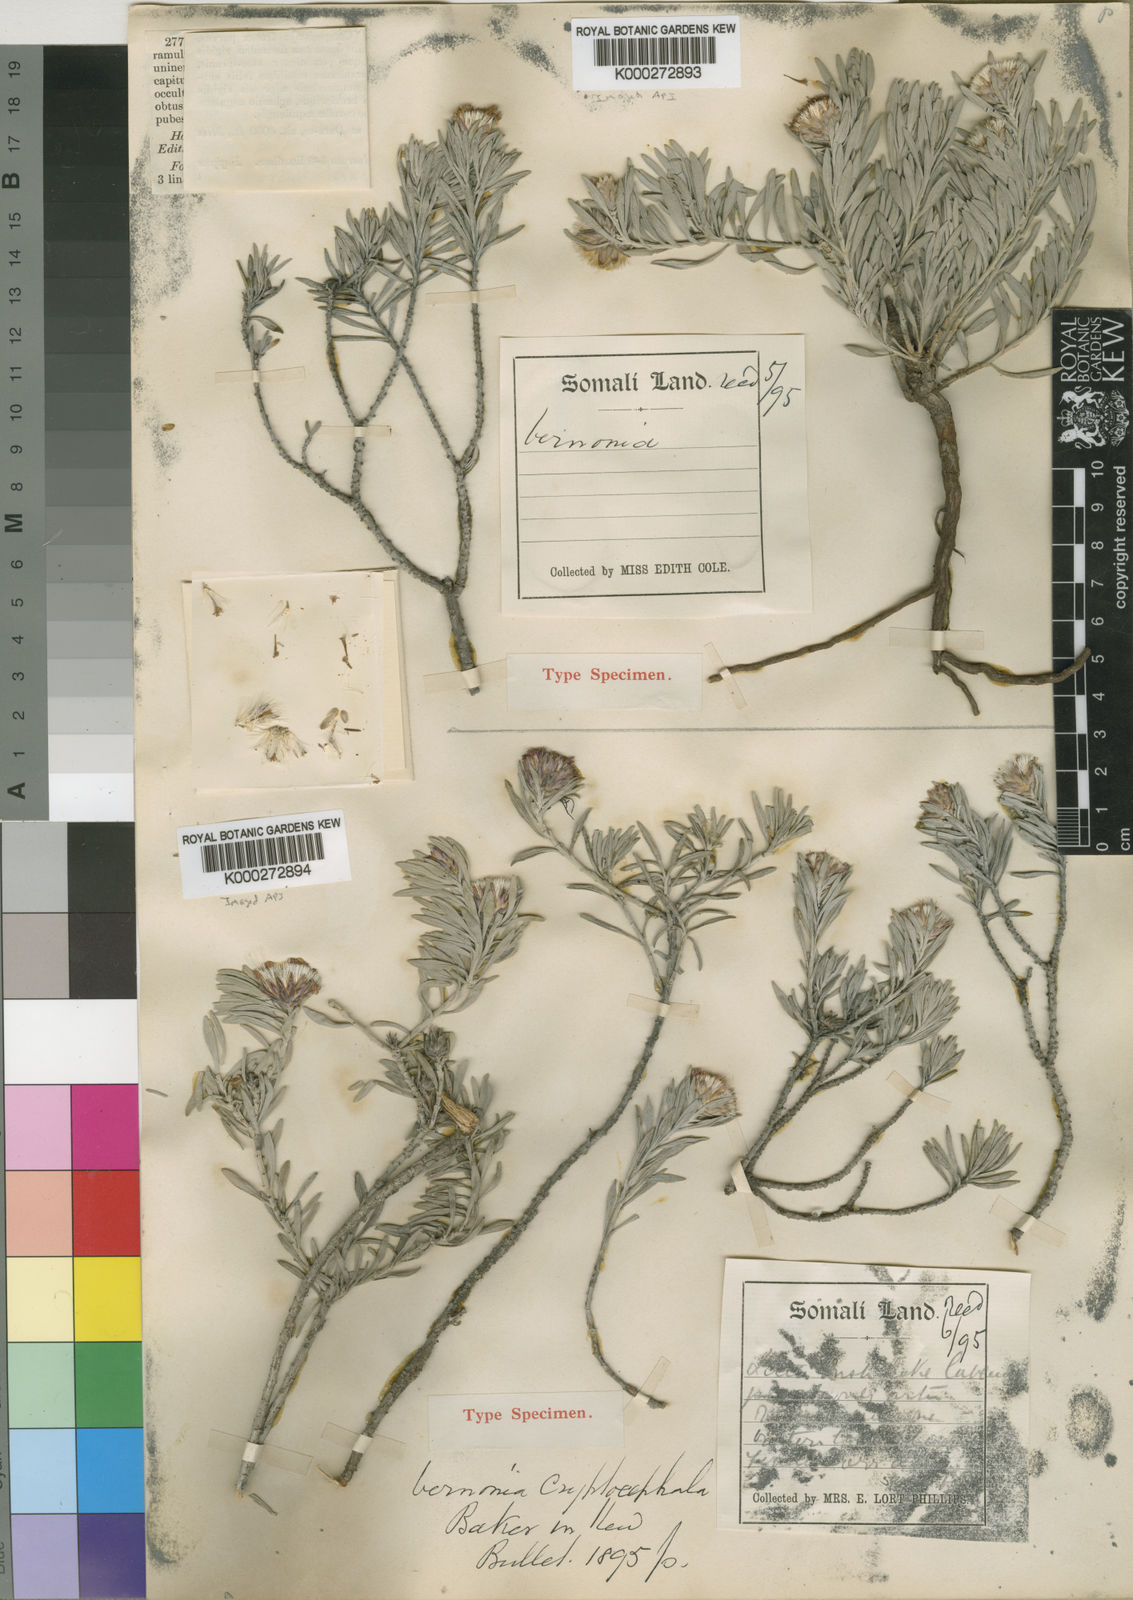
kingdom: Plantae
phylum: Tracheophyta
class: Magnoliopsida
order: Asterales
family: Asteraceae
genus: Vernonia
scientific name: Vernonia cryptocephala
